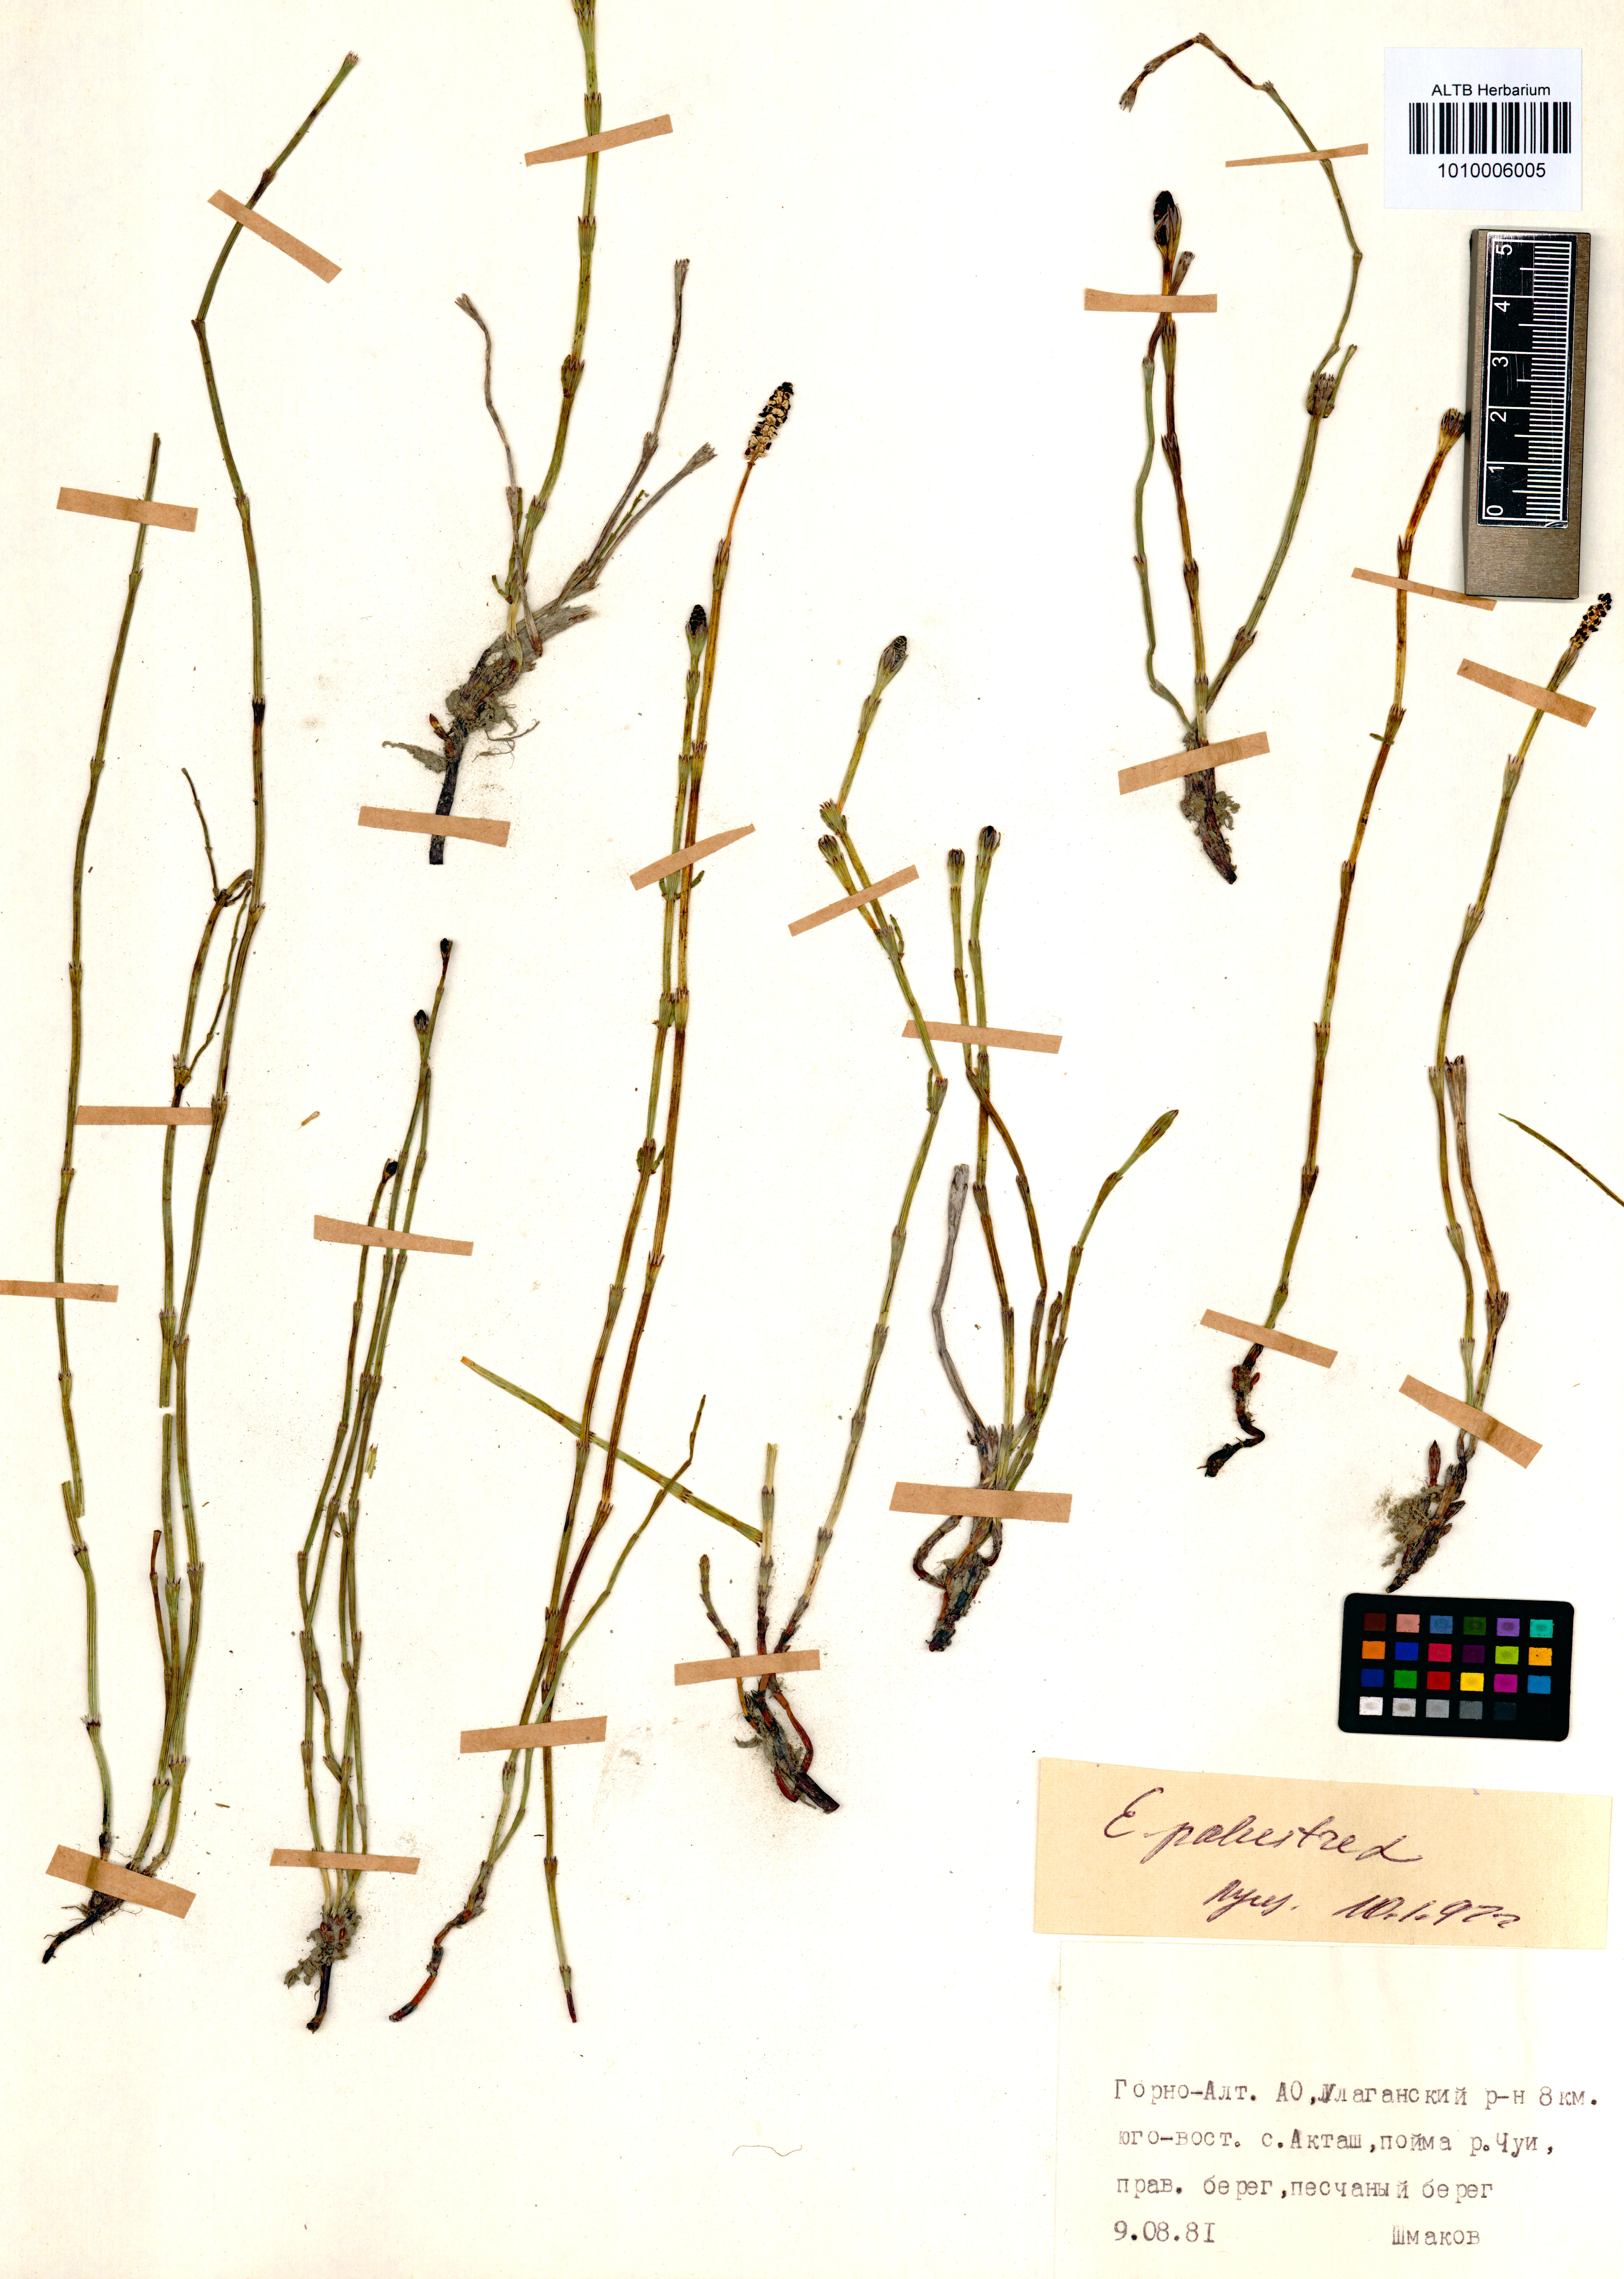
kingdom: Plantae
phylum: Tracheophyta
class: Polypodiopsida
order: Equisetales
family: Equisetaceae
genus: Equisetum
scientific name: Equisetum palustre
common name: Marsh horsetail
